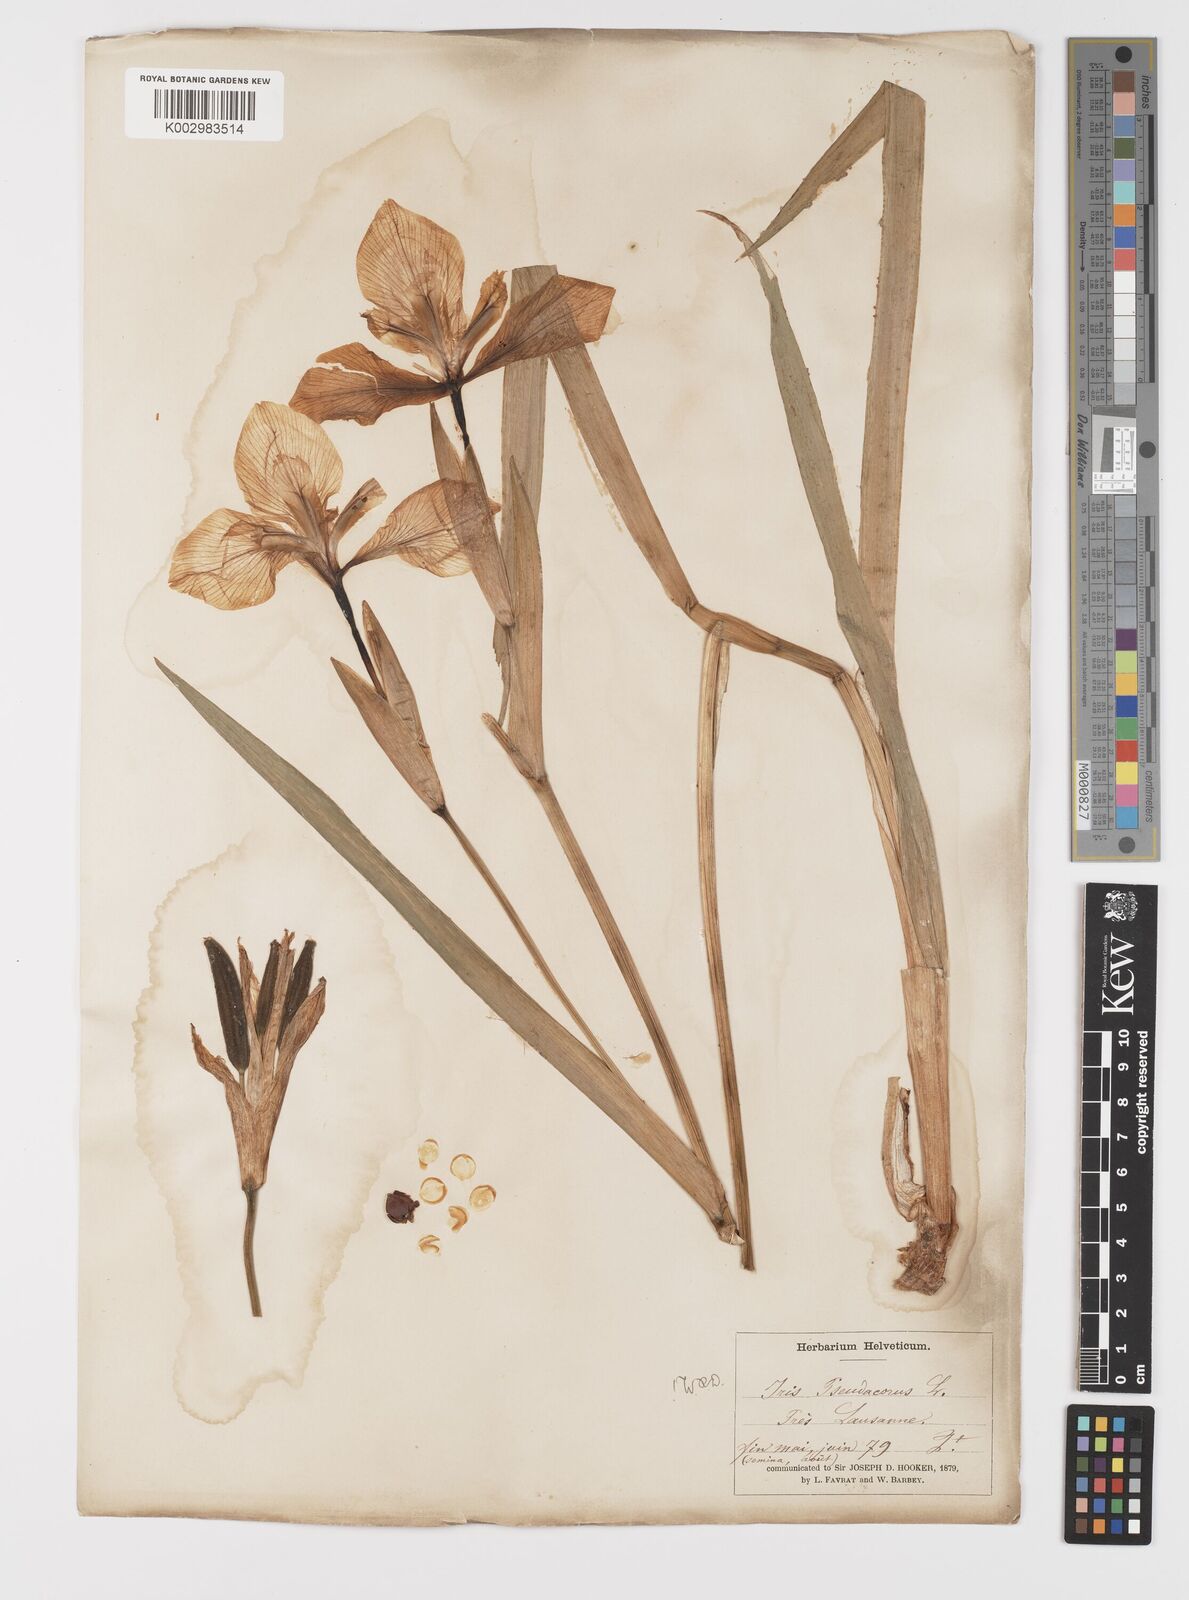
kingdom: Plantae
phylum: Tracheophyta
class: Liliopsida
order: Asparagales
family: Iridaceae
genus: Iris
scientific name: Iris pseudacorus
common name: Yellow flag
